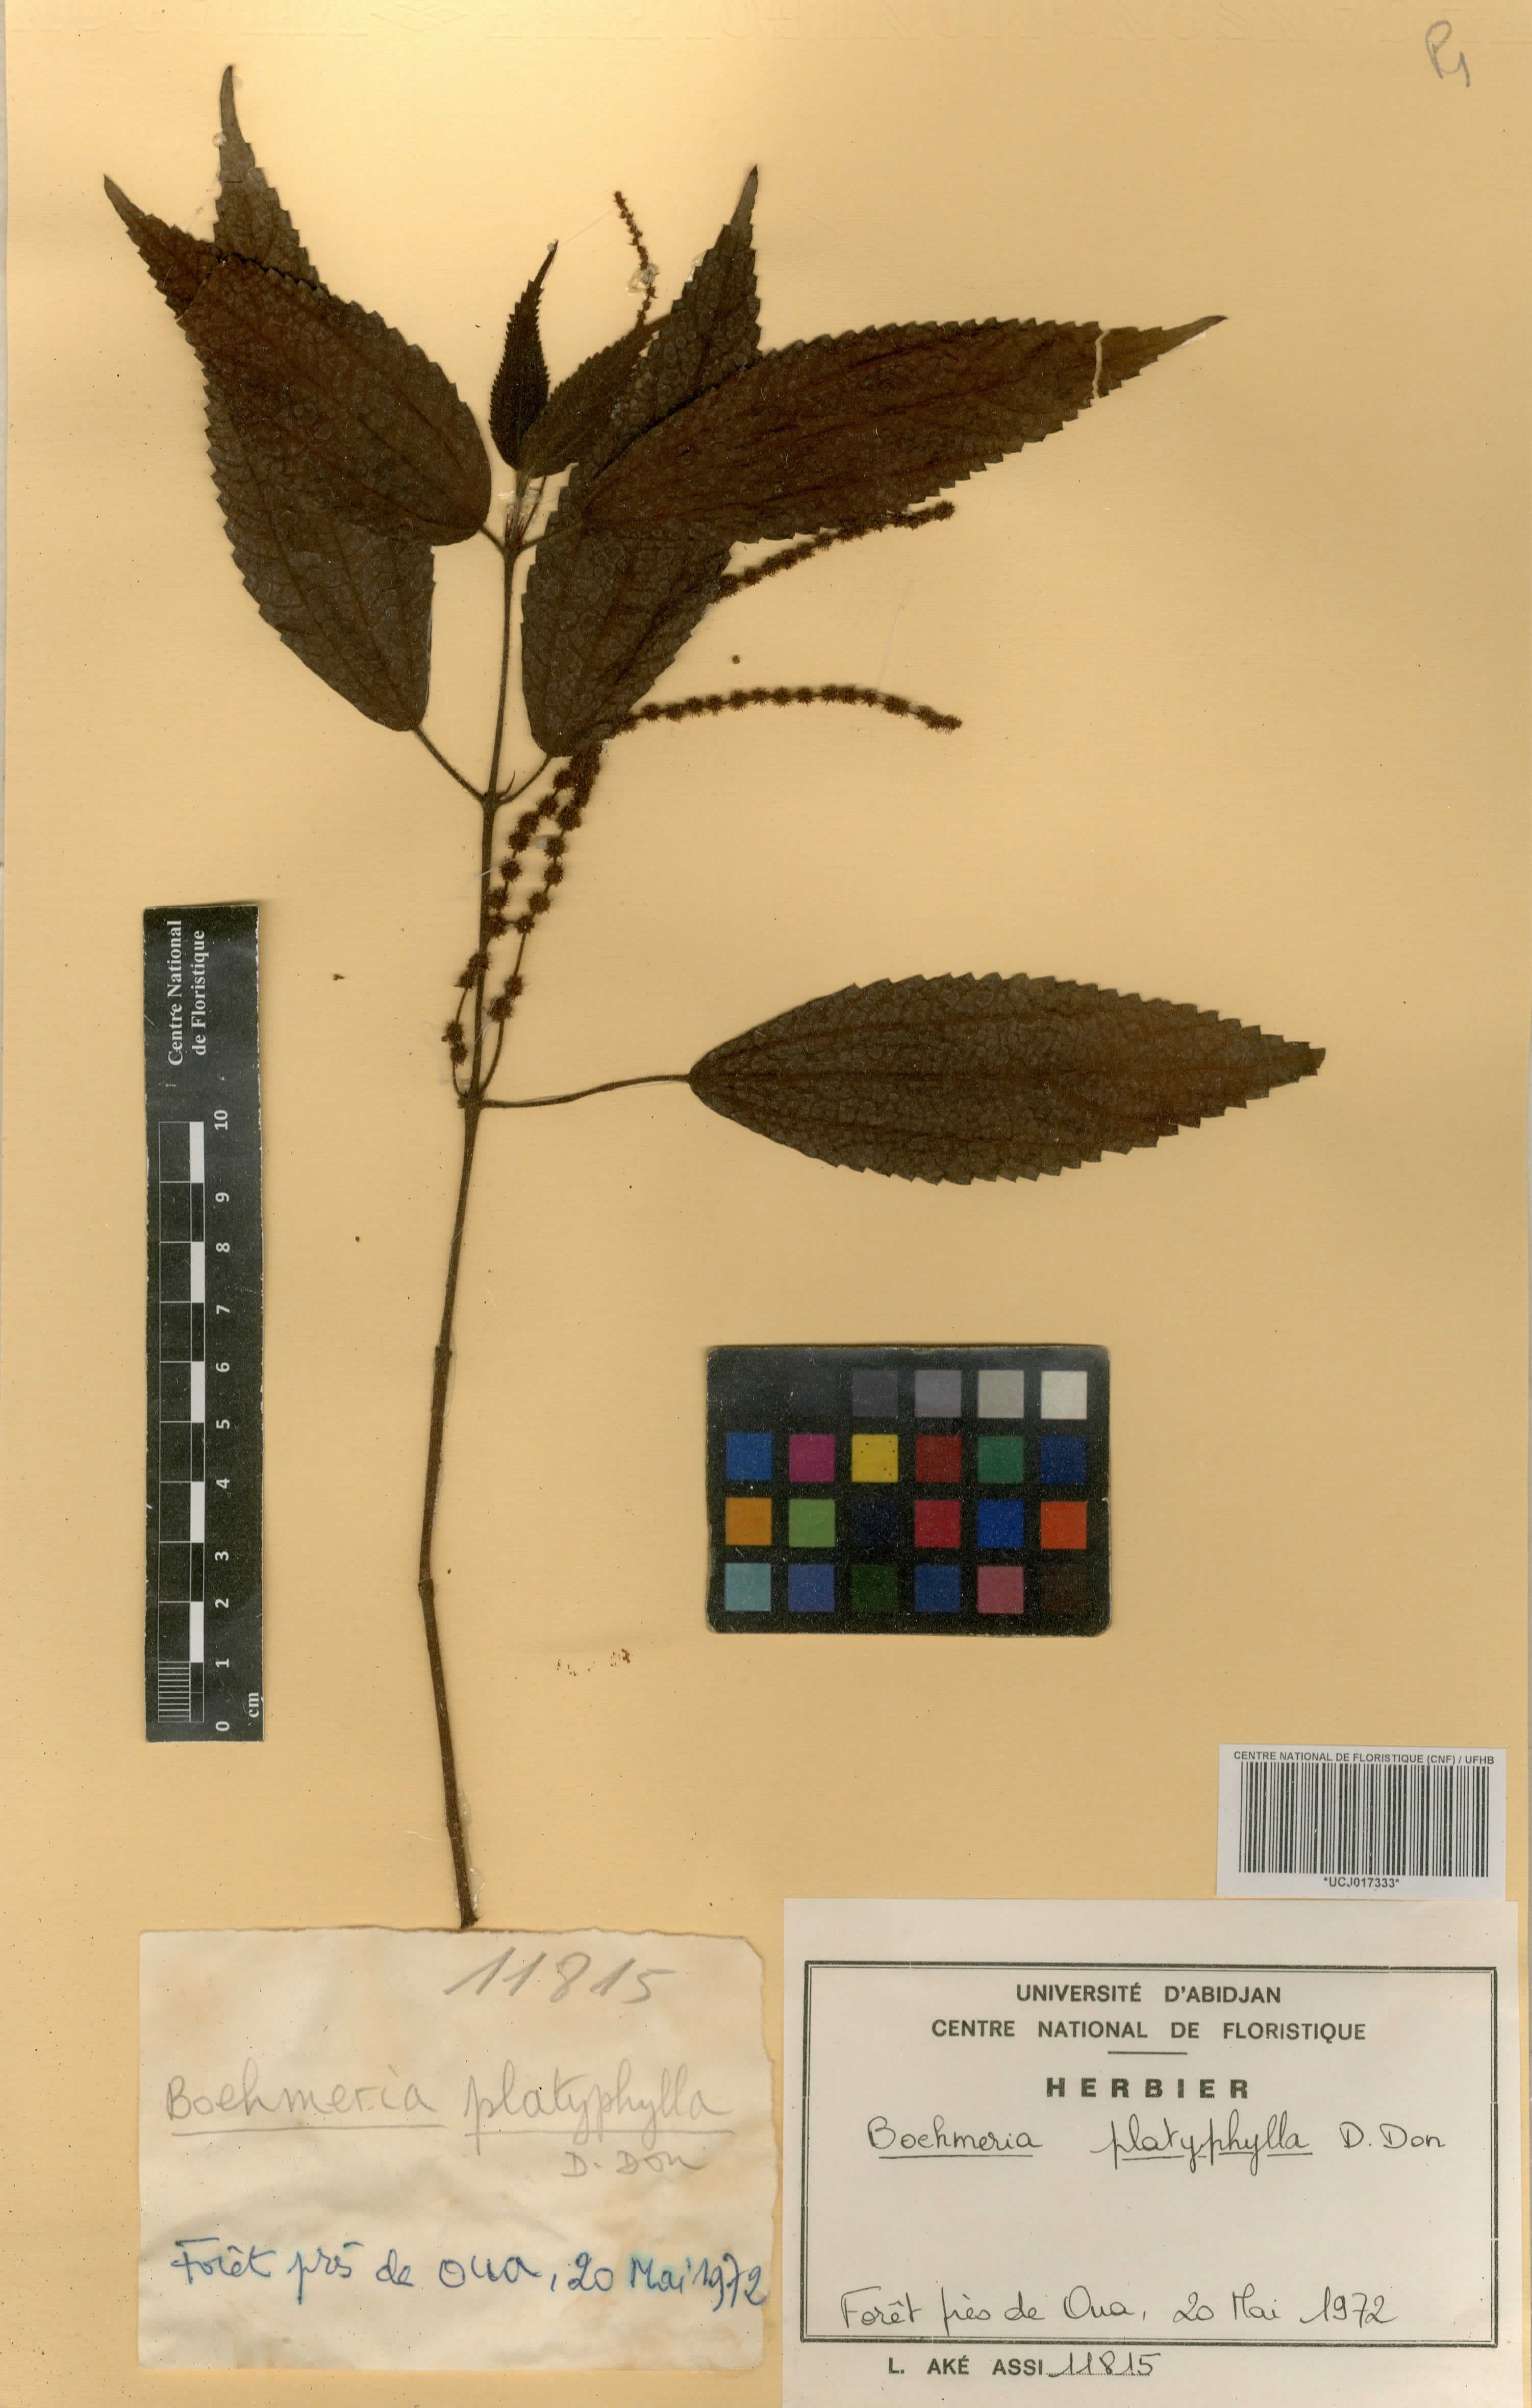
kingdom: Plantae
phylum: Tracheophyta
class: Magnoliopsida
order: Rosales
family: Urticaceae
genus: Boehmeria
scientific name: Boehmeria virgata
